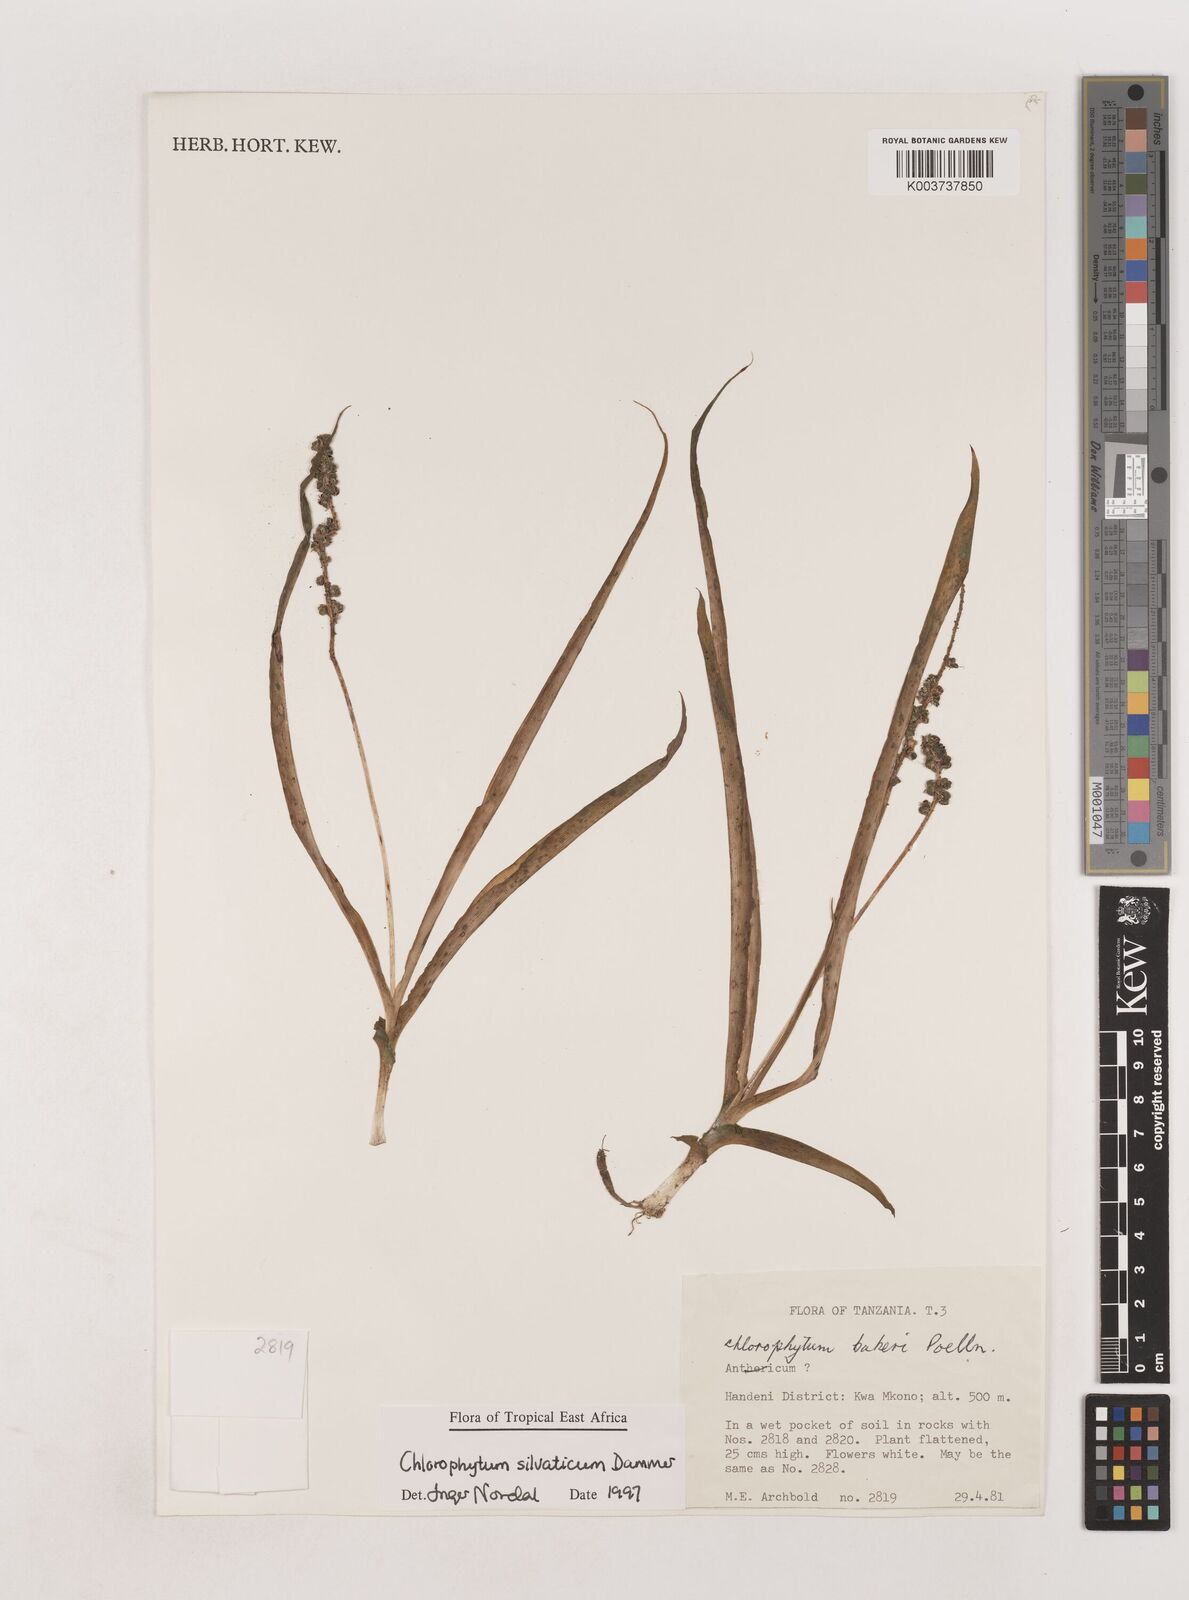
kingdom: Plantae
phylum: Tracheophyta
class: Liliopsida
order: Asparagales
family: Asparagaceae
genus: Chlorophytum
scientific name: Chlorophytum africanum
